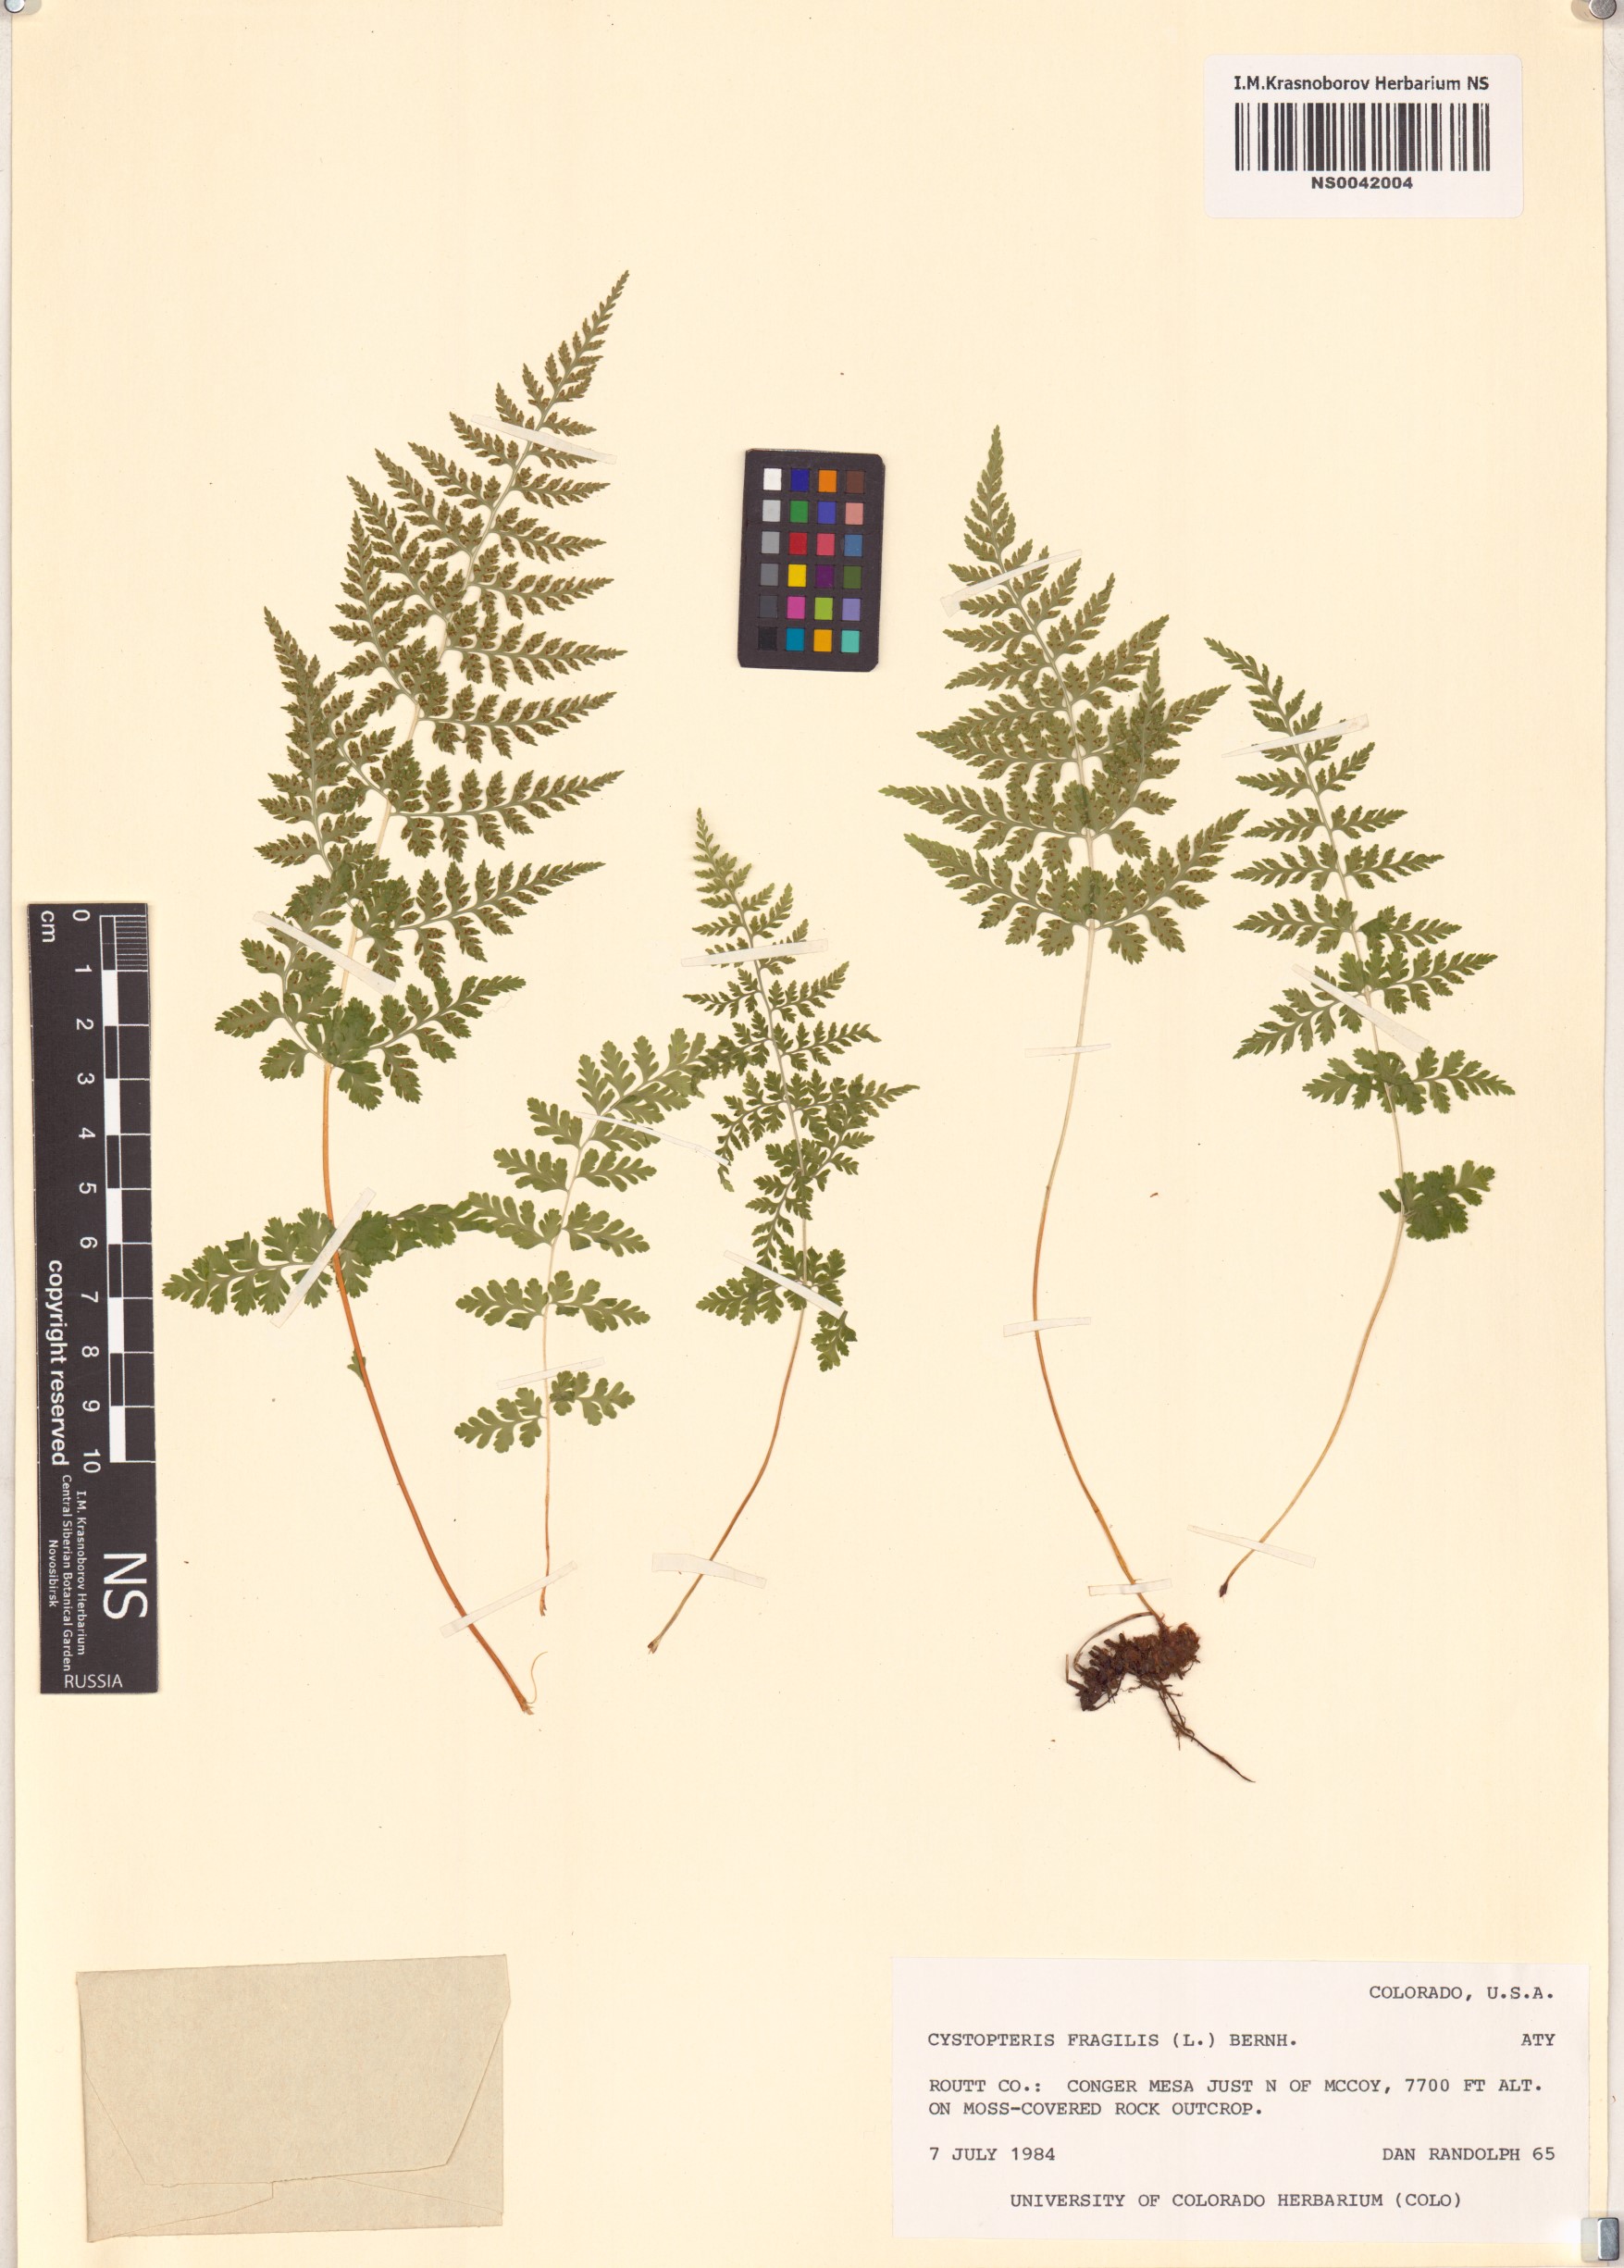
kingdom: Plantae
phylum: Tracheophyta
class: Polypodiopsida
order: Polypodiales
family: Cystopteridaceae
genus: Cystopteris
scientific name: Cystopteris fragilis
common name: Brittle bladder fern
